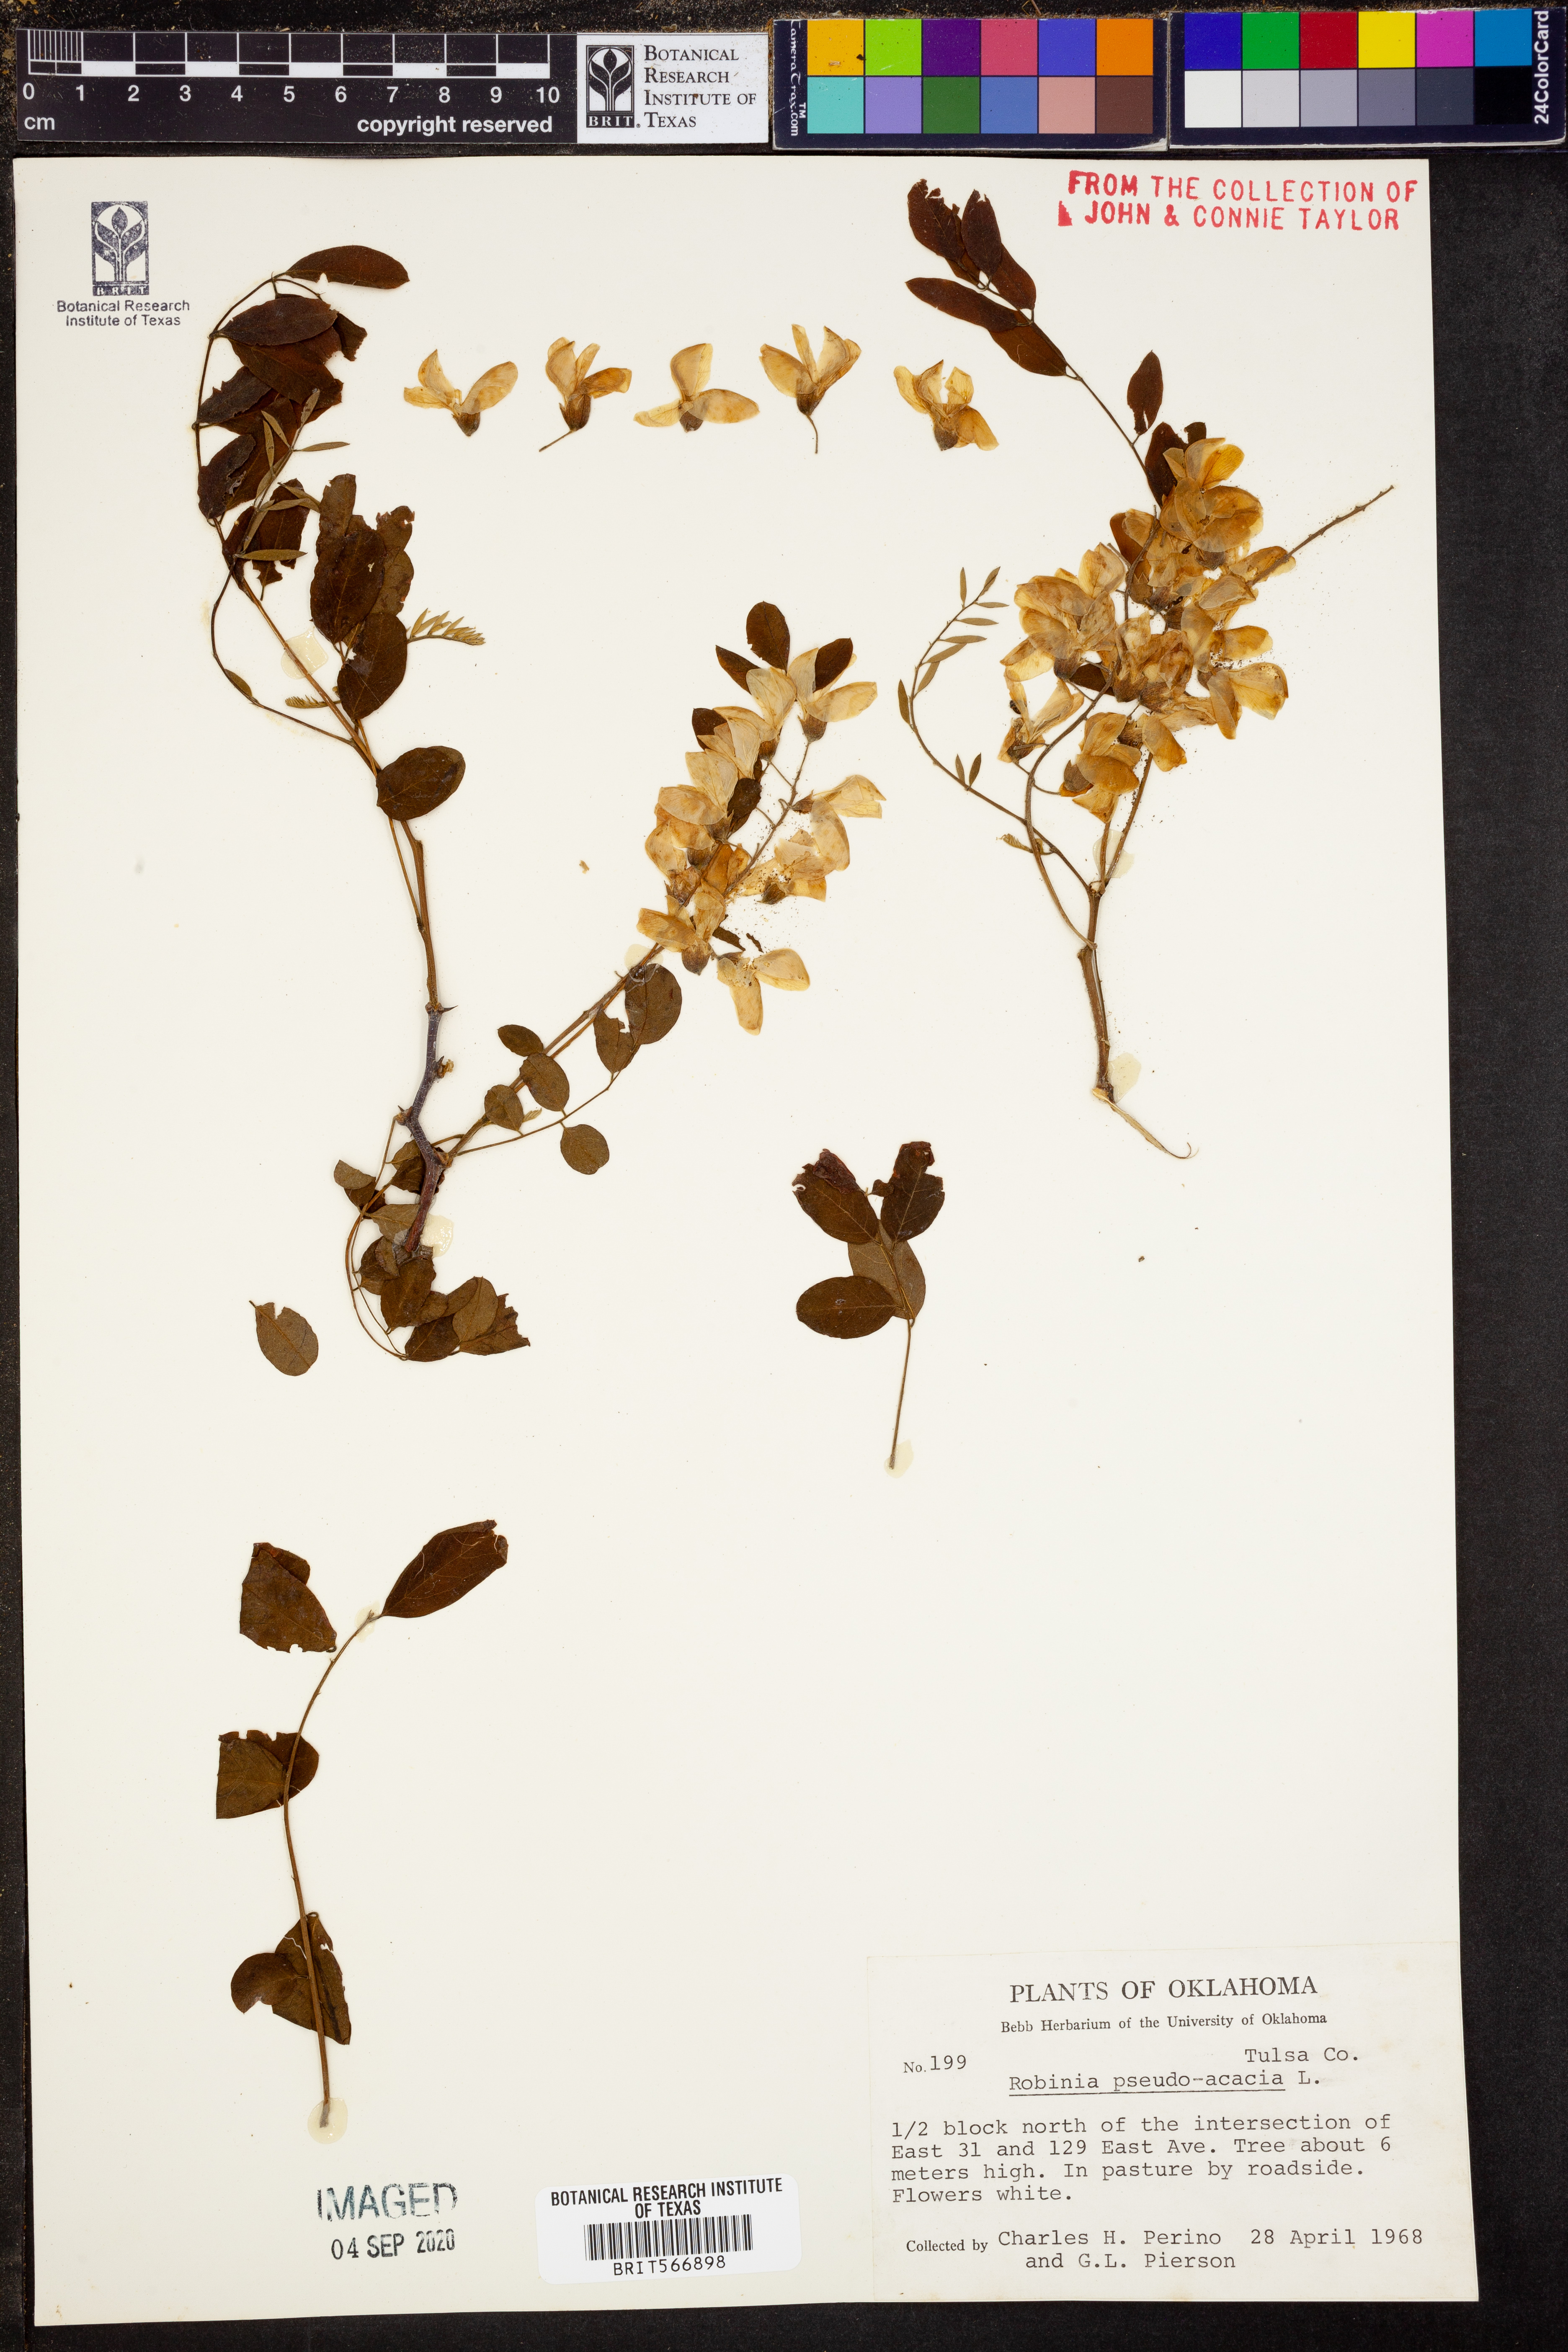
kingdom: Plantae
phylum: Tracheophyta
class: Magnoliopsida
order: Fabales
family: Fabaceae
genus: Robinia
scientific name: Robinia pseudoacacia
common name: Black locust
